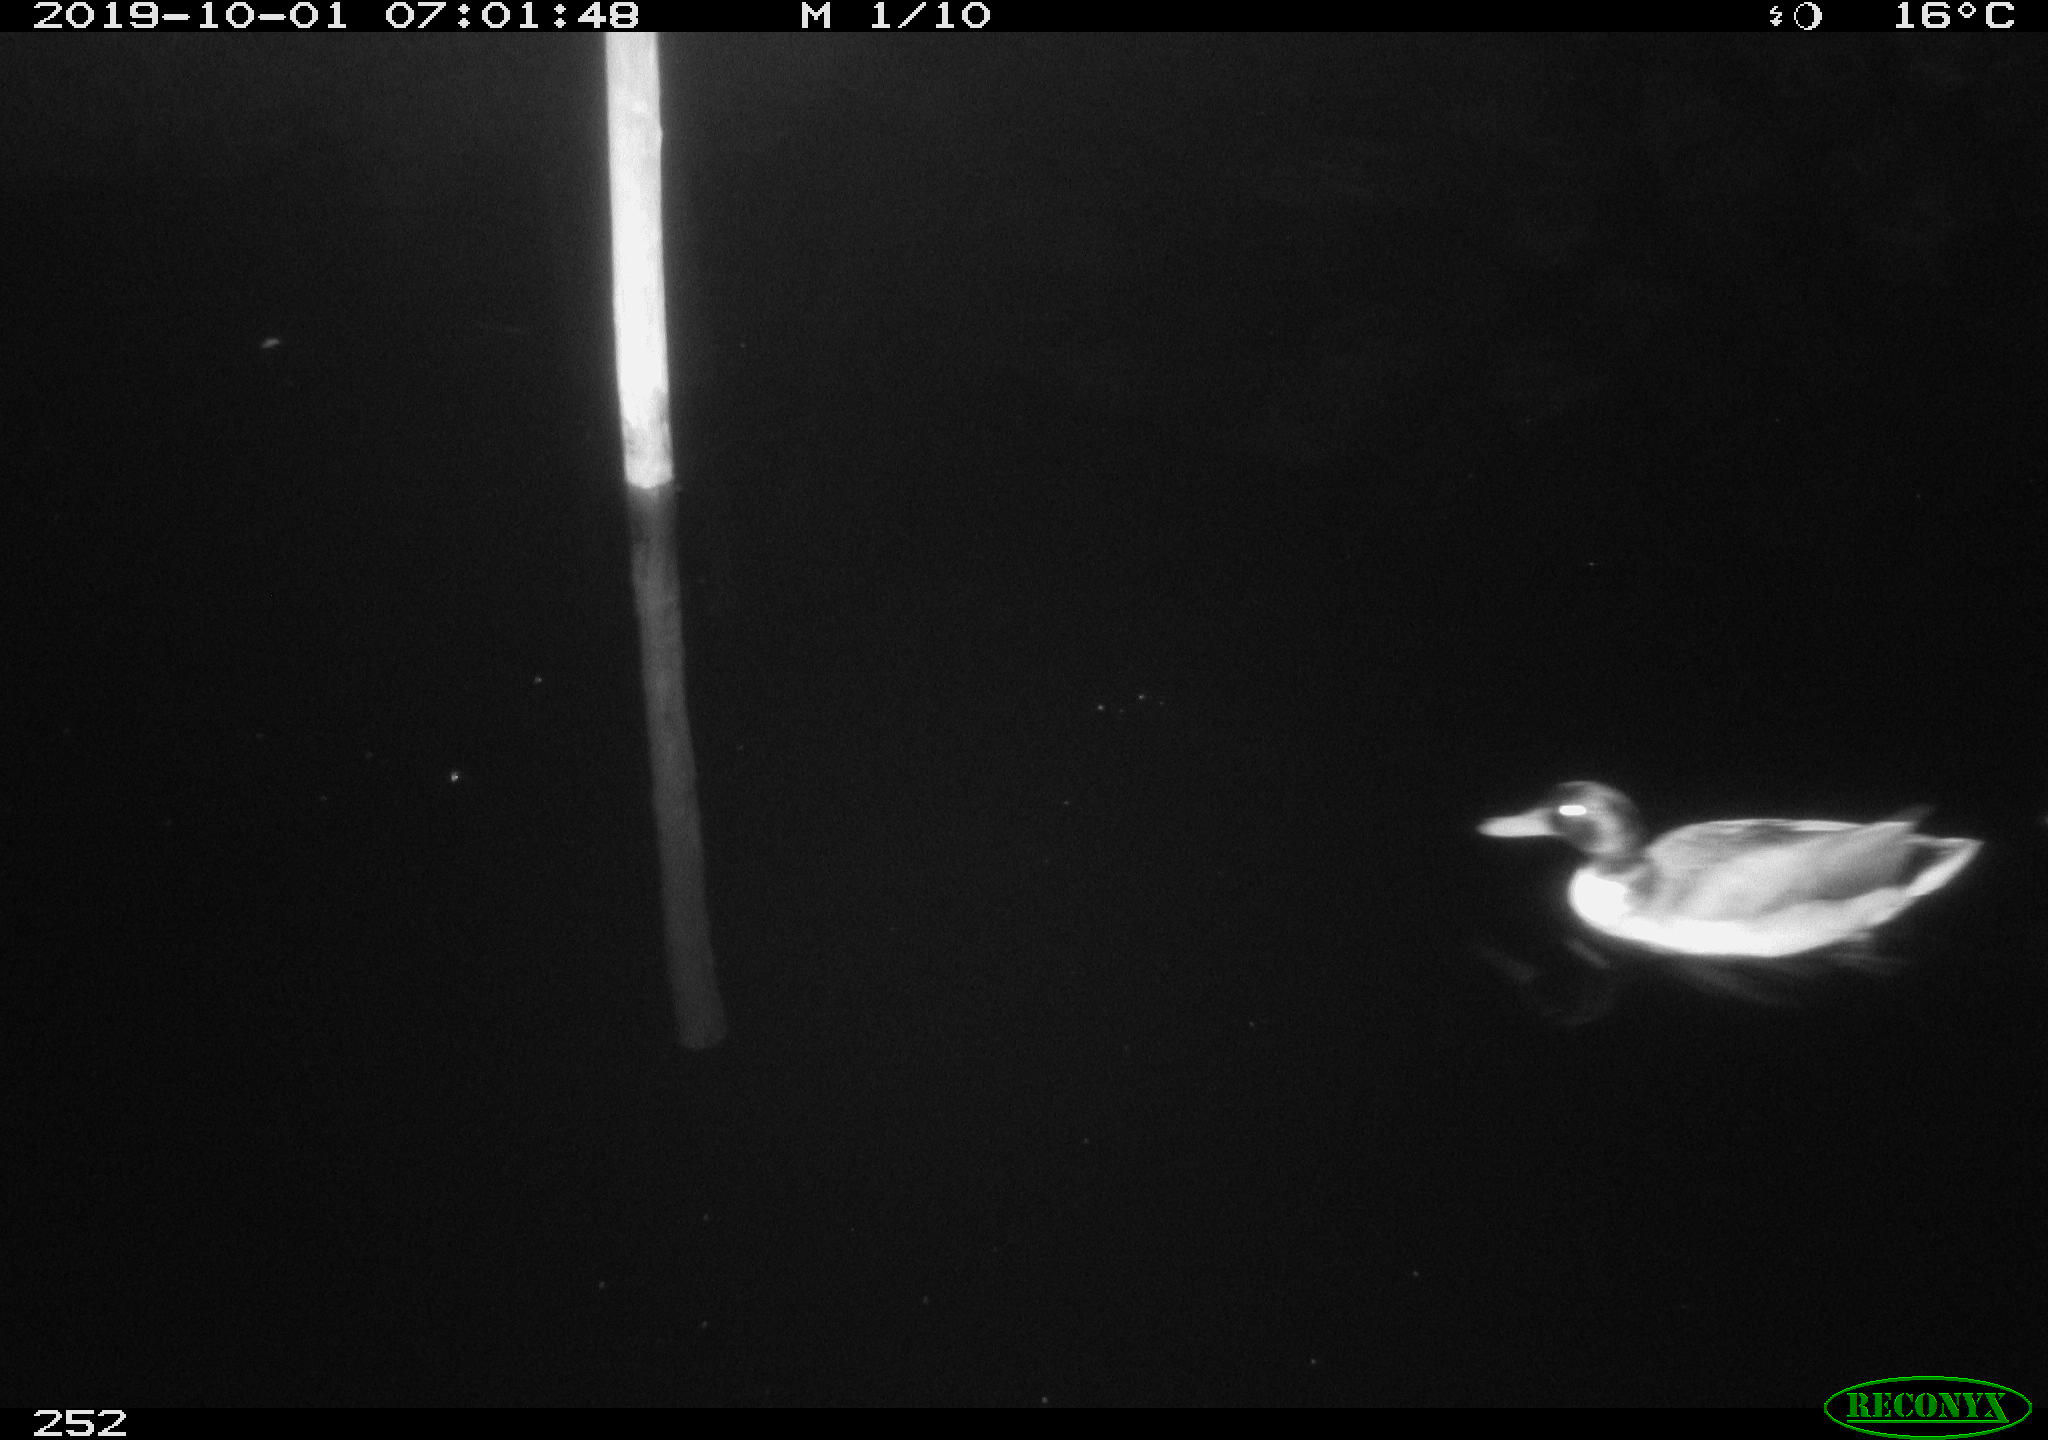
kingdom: Animalia
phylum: Chordata
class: Aves
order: Anseriformes
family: Anatidae
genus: Anas
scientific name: Anas platyrhynchos
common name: Mallard
